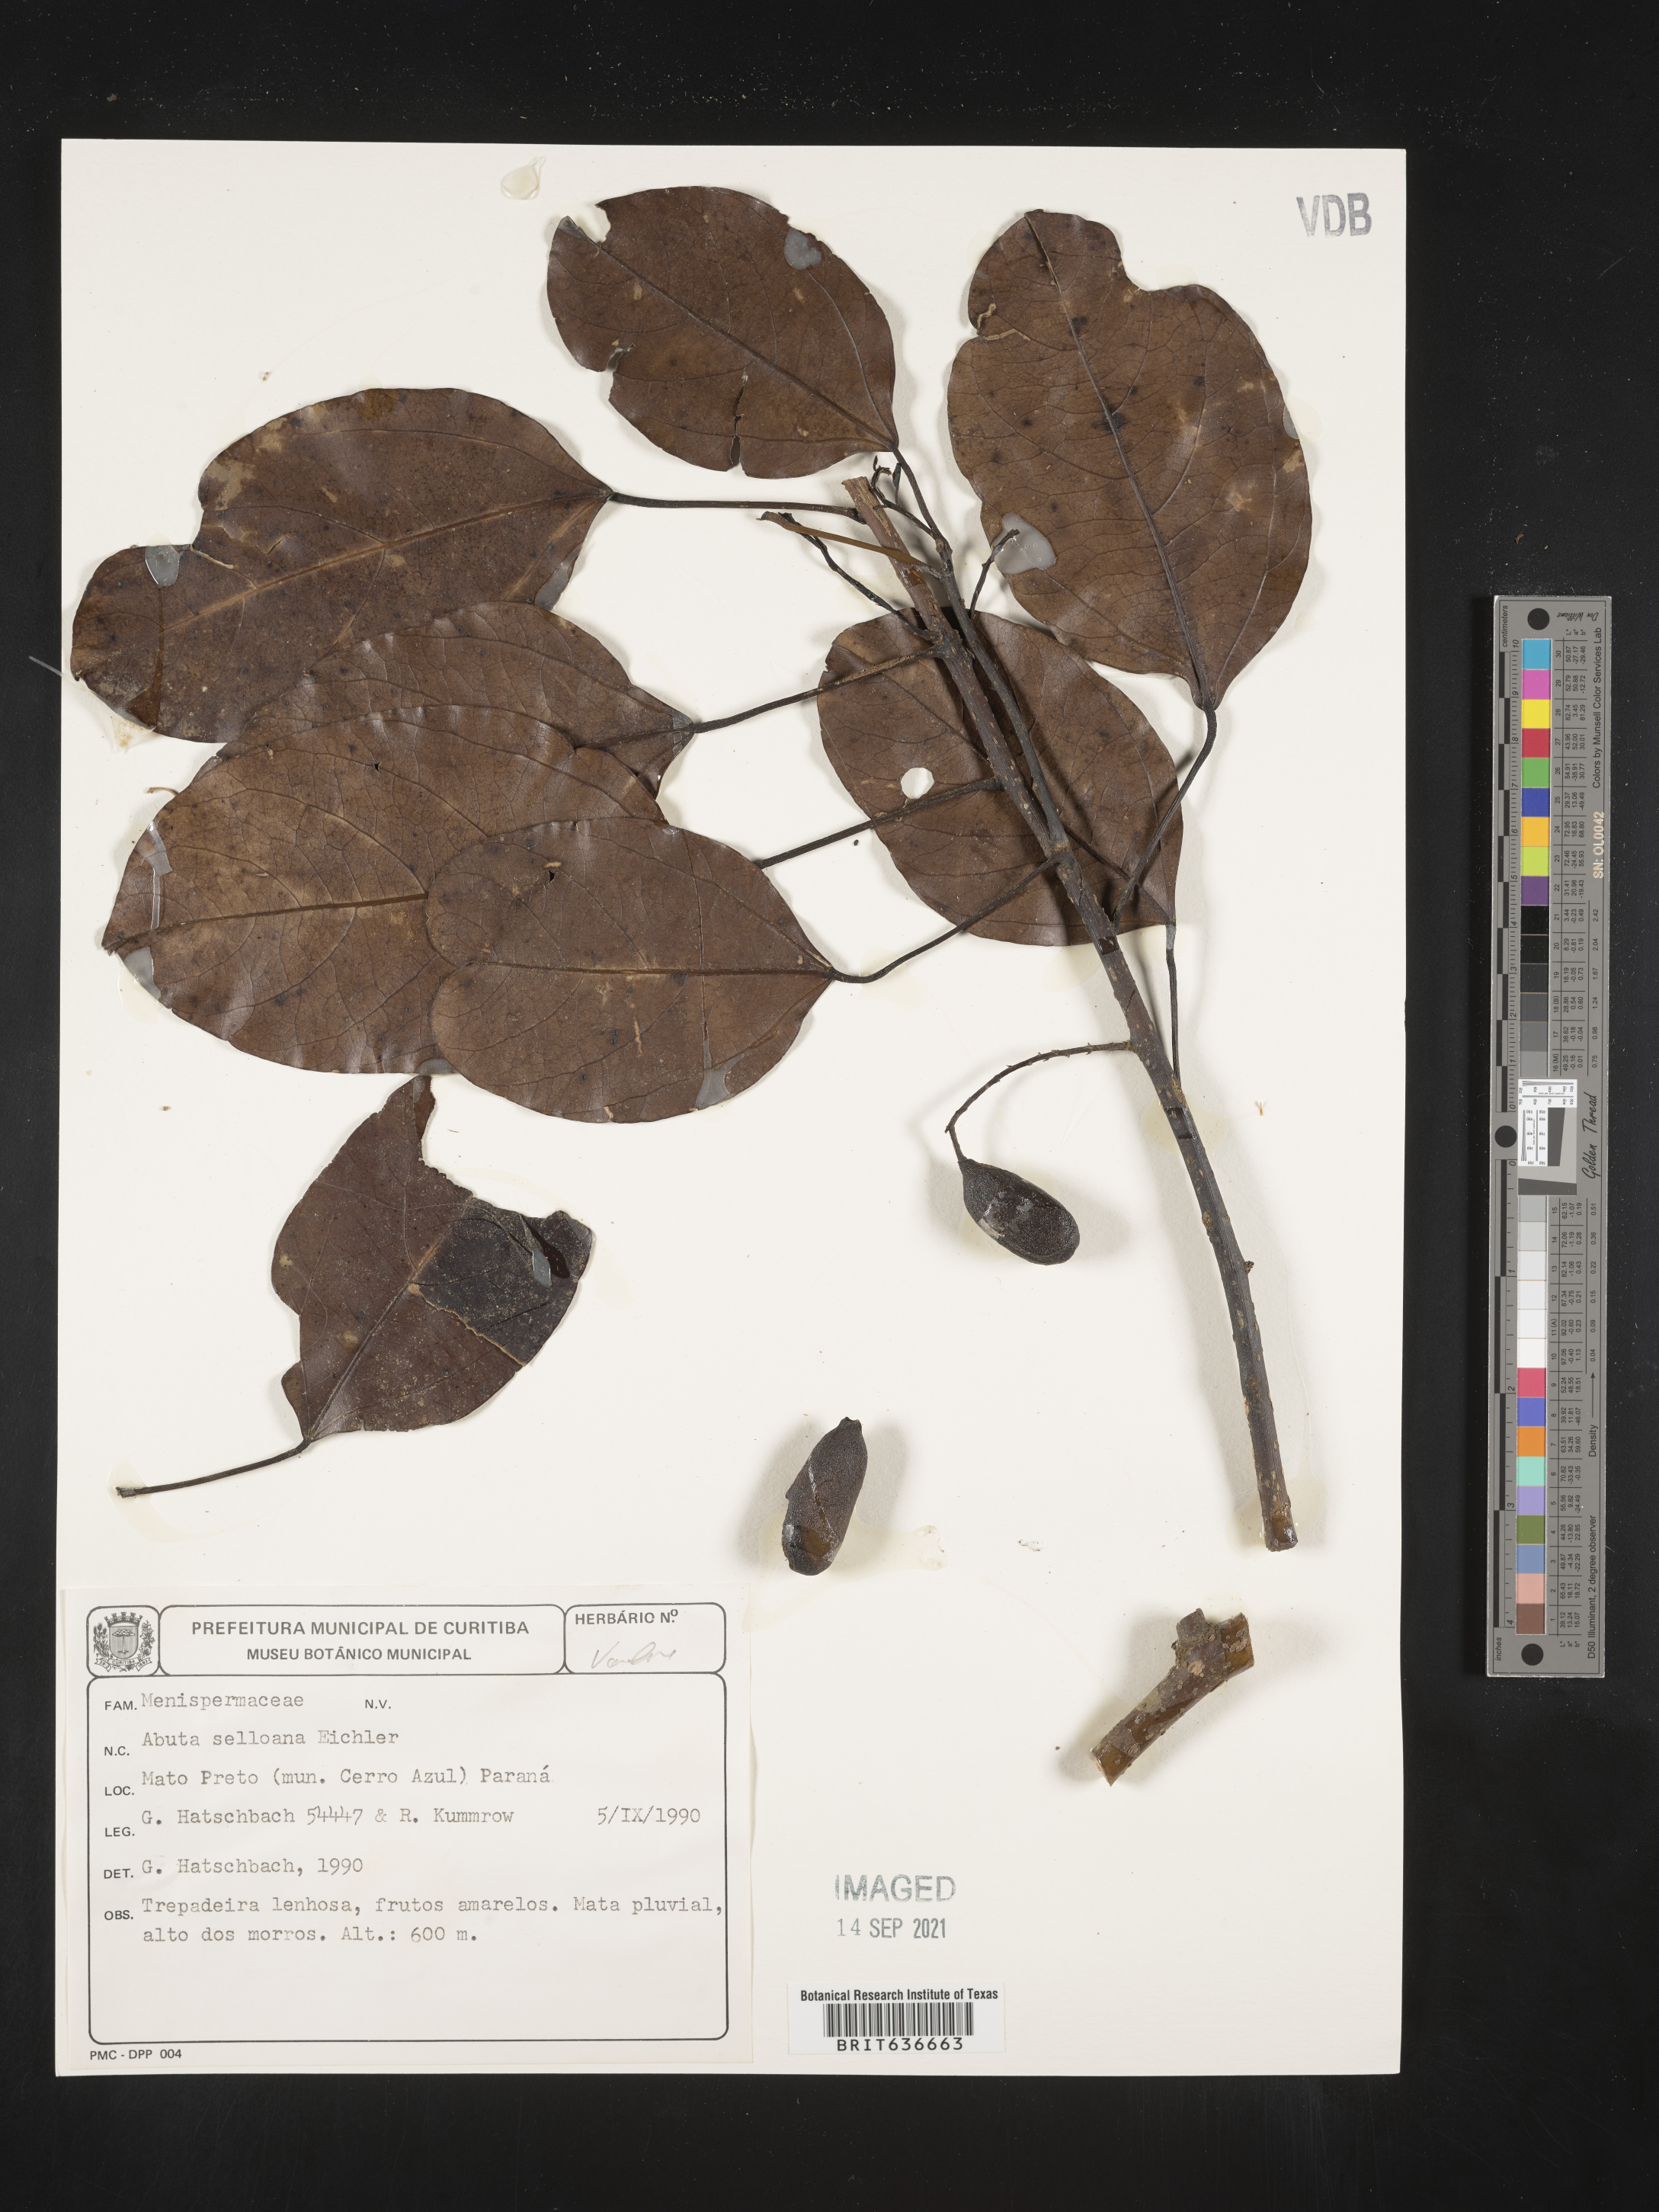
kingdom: Plantae
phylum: Tracheophyta
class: Magnoliopsida
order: Ranunculales
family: Menispermaceae
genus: Abuta
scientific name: Abuta
